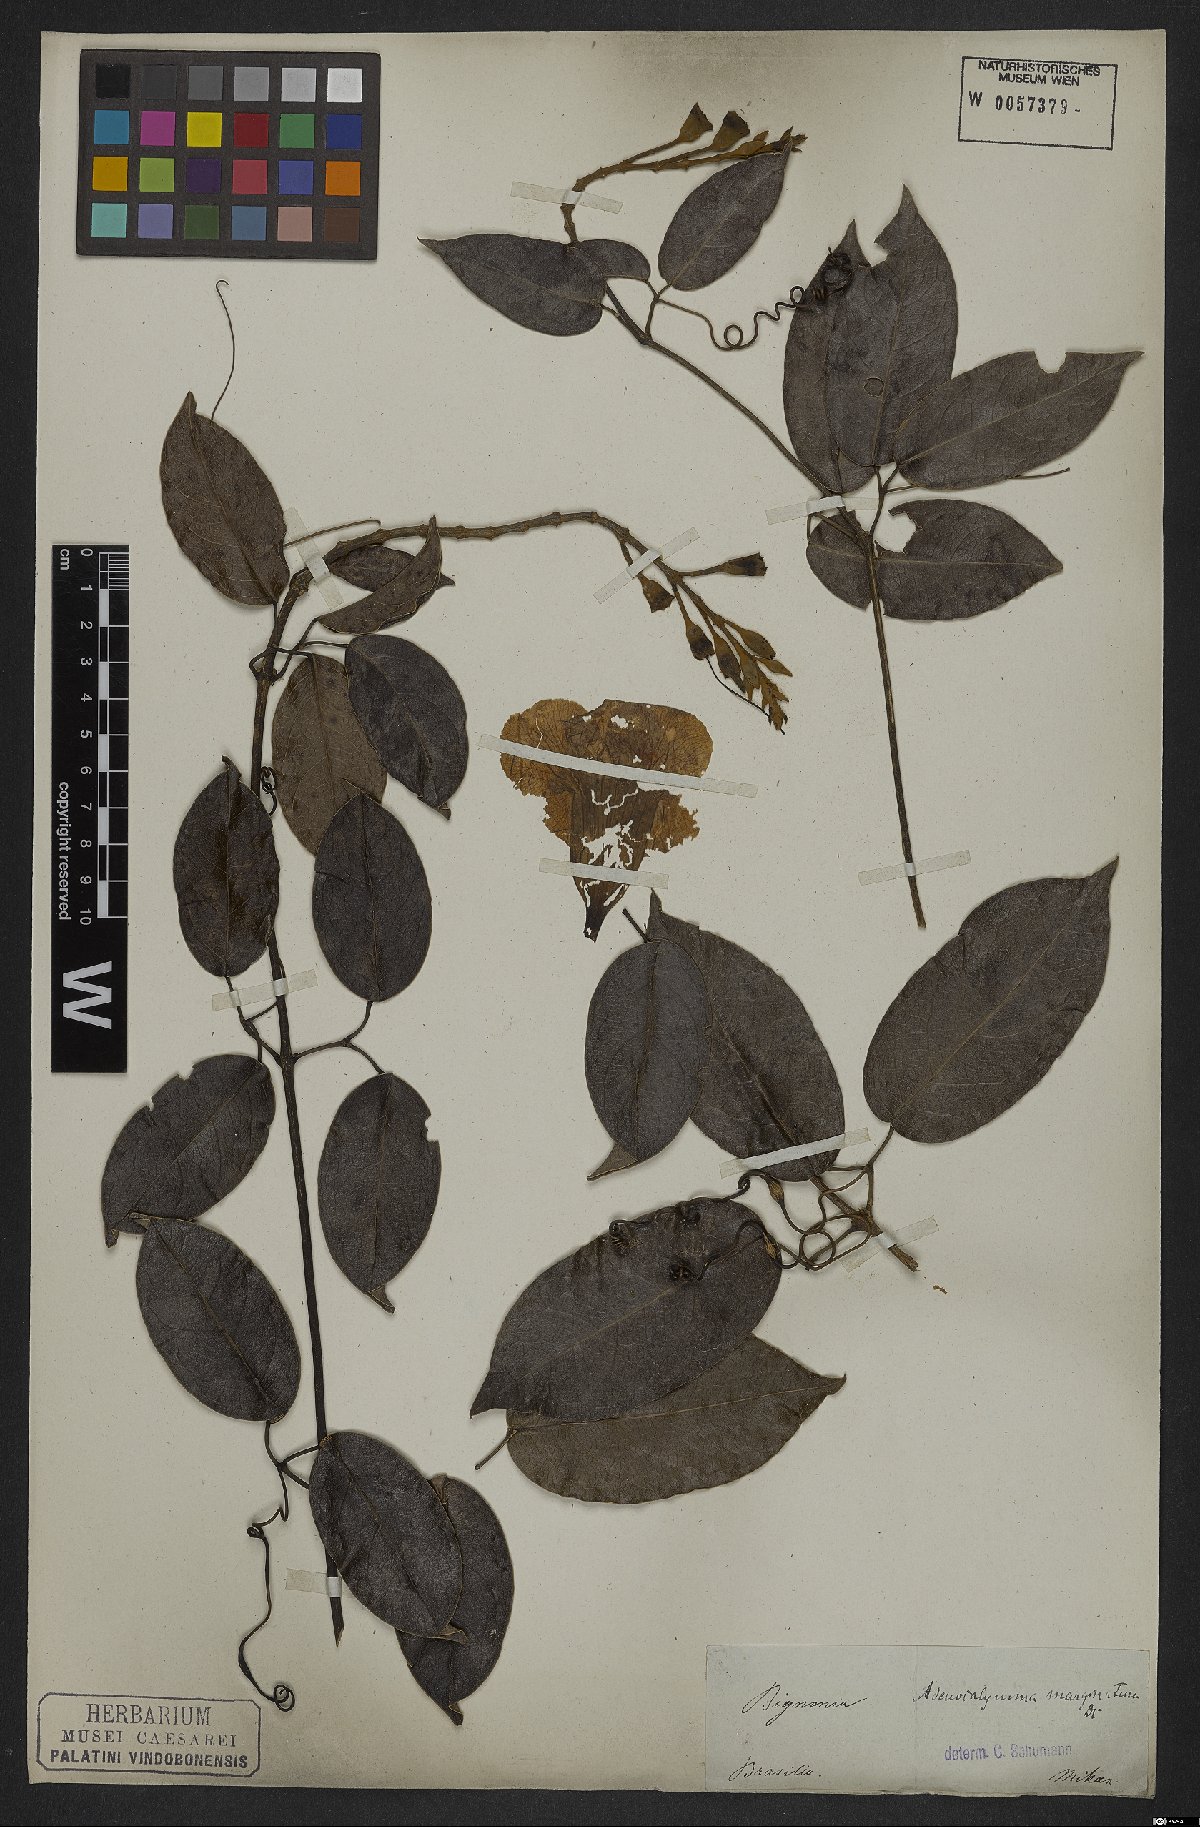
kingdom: Plantae
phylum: Tracheophyta
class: Magnoliopsida
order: Lamiales
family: Bignoniaceae
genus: Adenocalymma
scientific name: Adenocalymma marginatum
